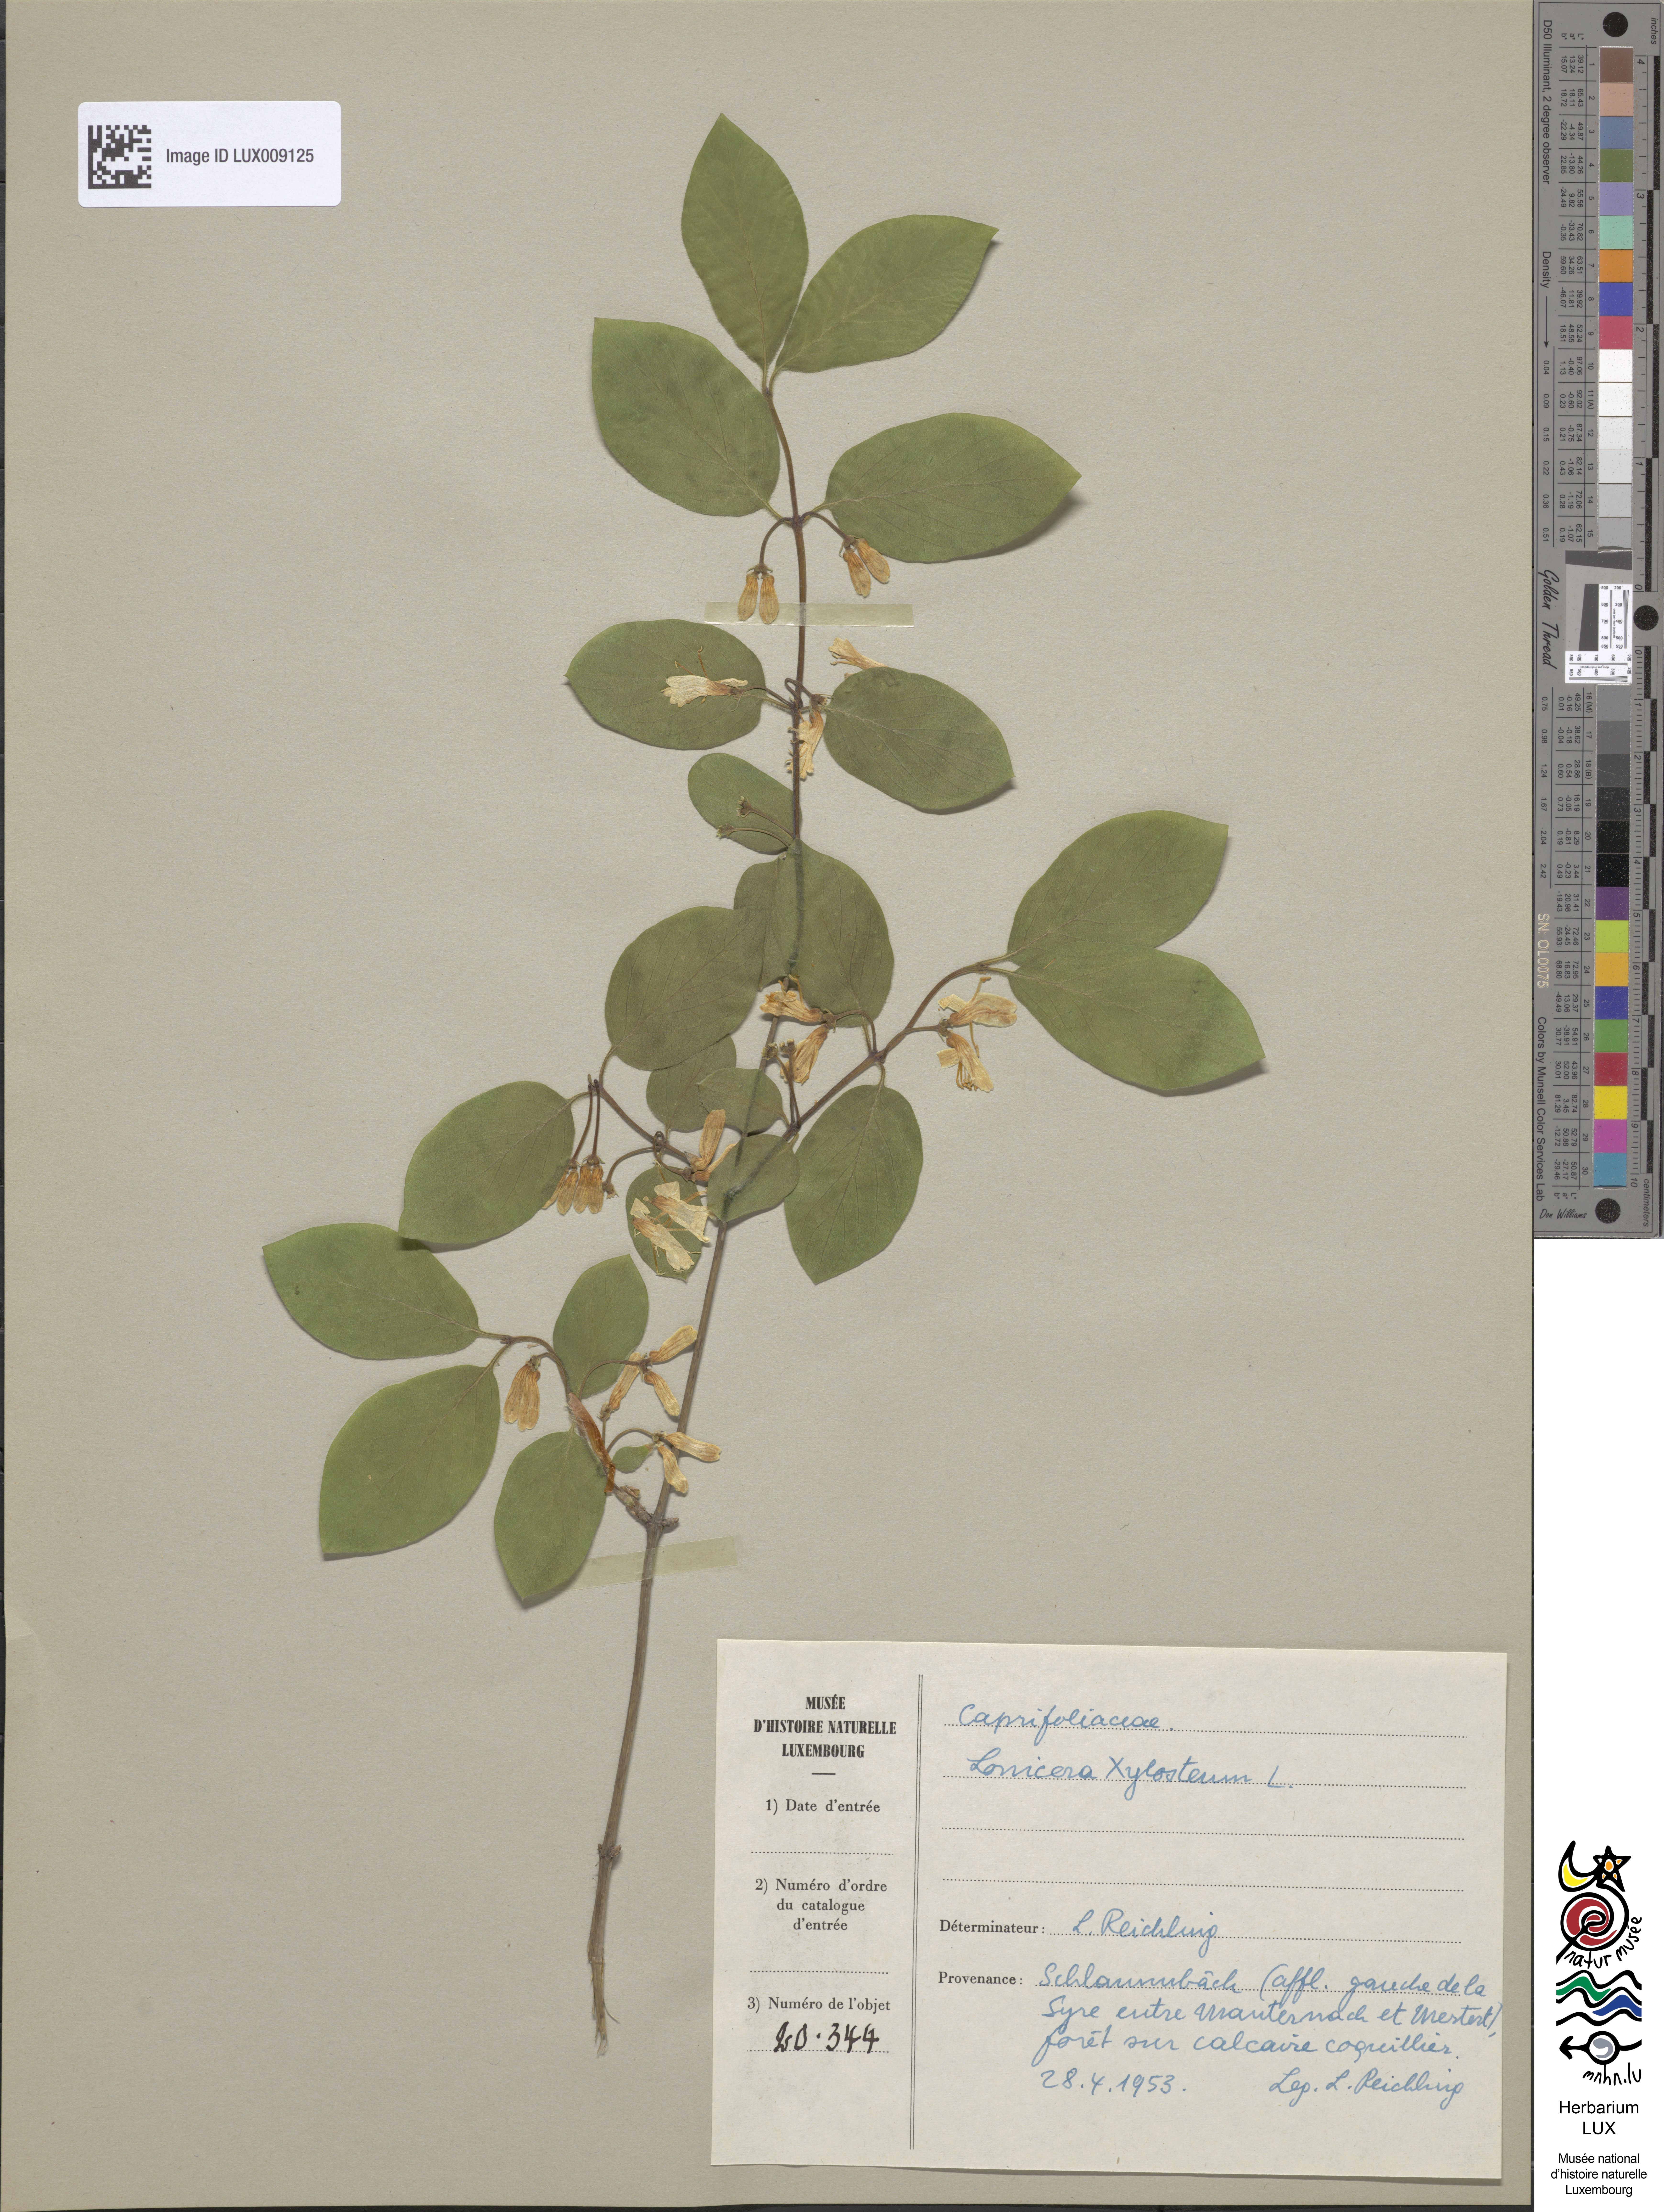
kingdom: Plantae
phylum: Tracheophyta
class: Magnoliopsida
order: Dipsacales
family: Caprifoliaceae
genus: Lonicera
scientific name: Lonicera xylosteum
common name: Fly honeysuckle
